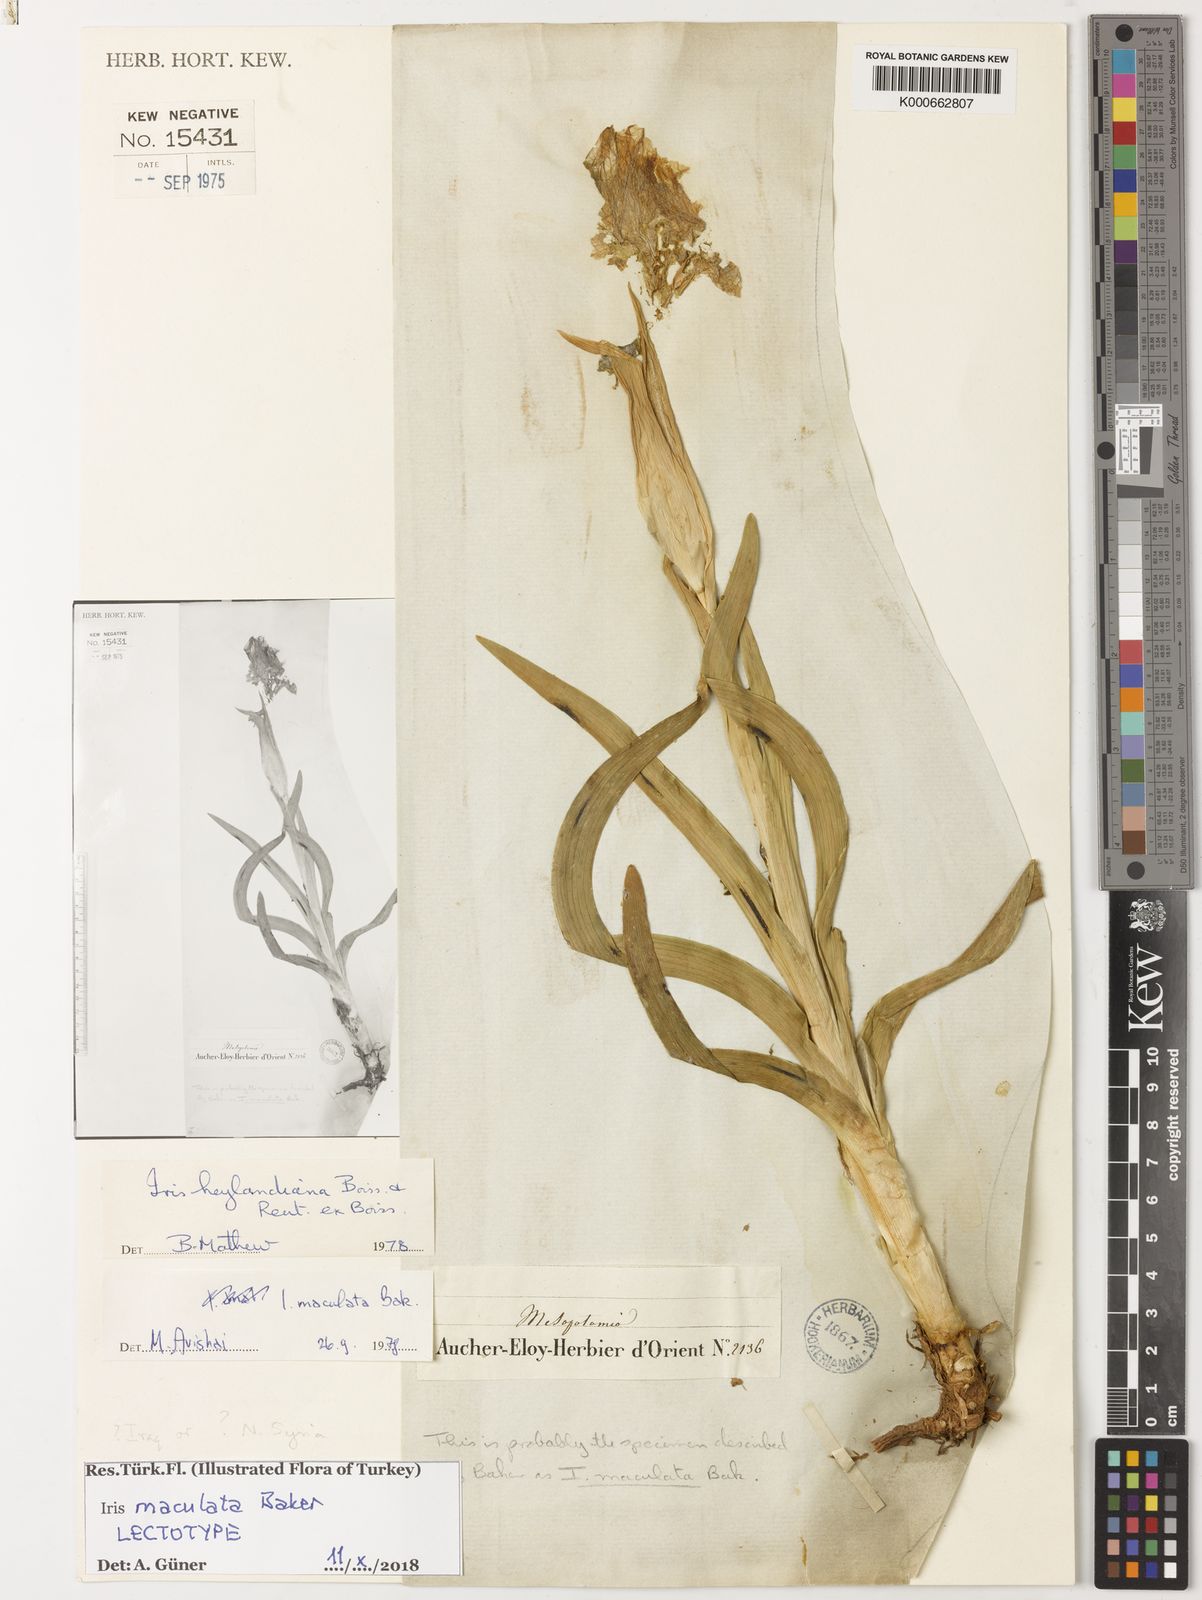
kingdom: Plantae
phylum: Tracheophyta
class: Liliopsida
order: Asparagales
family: Iridaceae
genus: Iris
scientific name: Iris maculata
